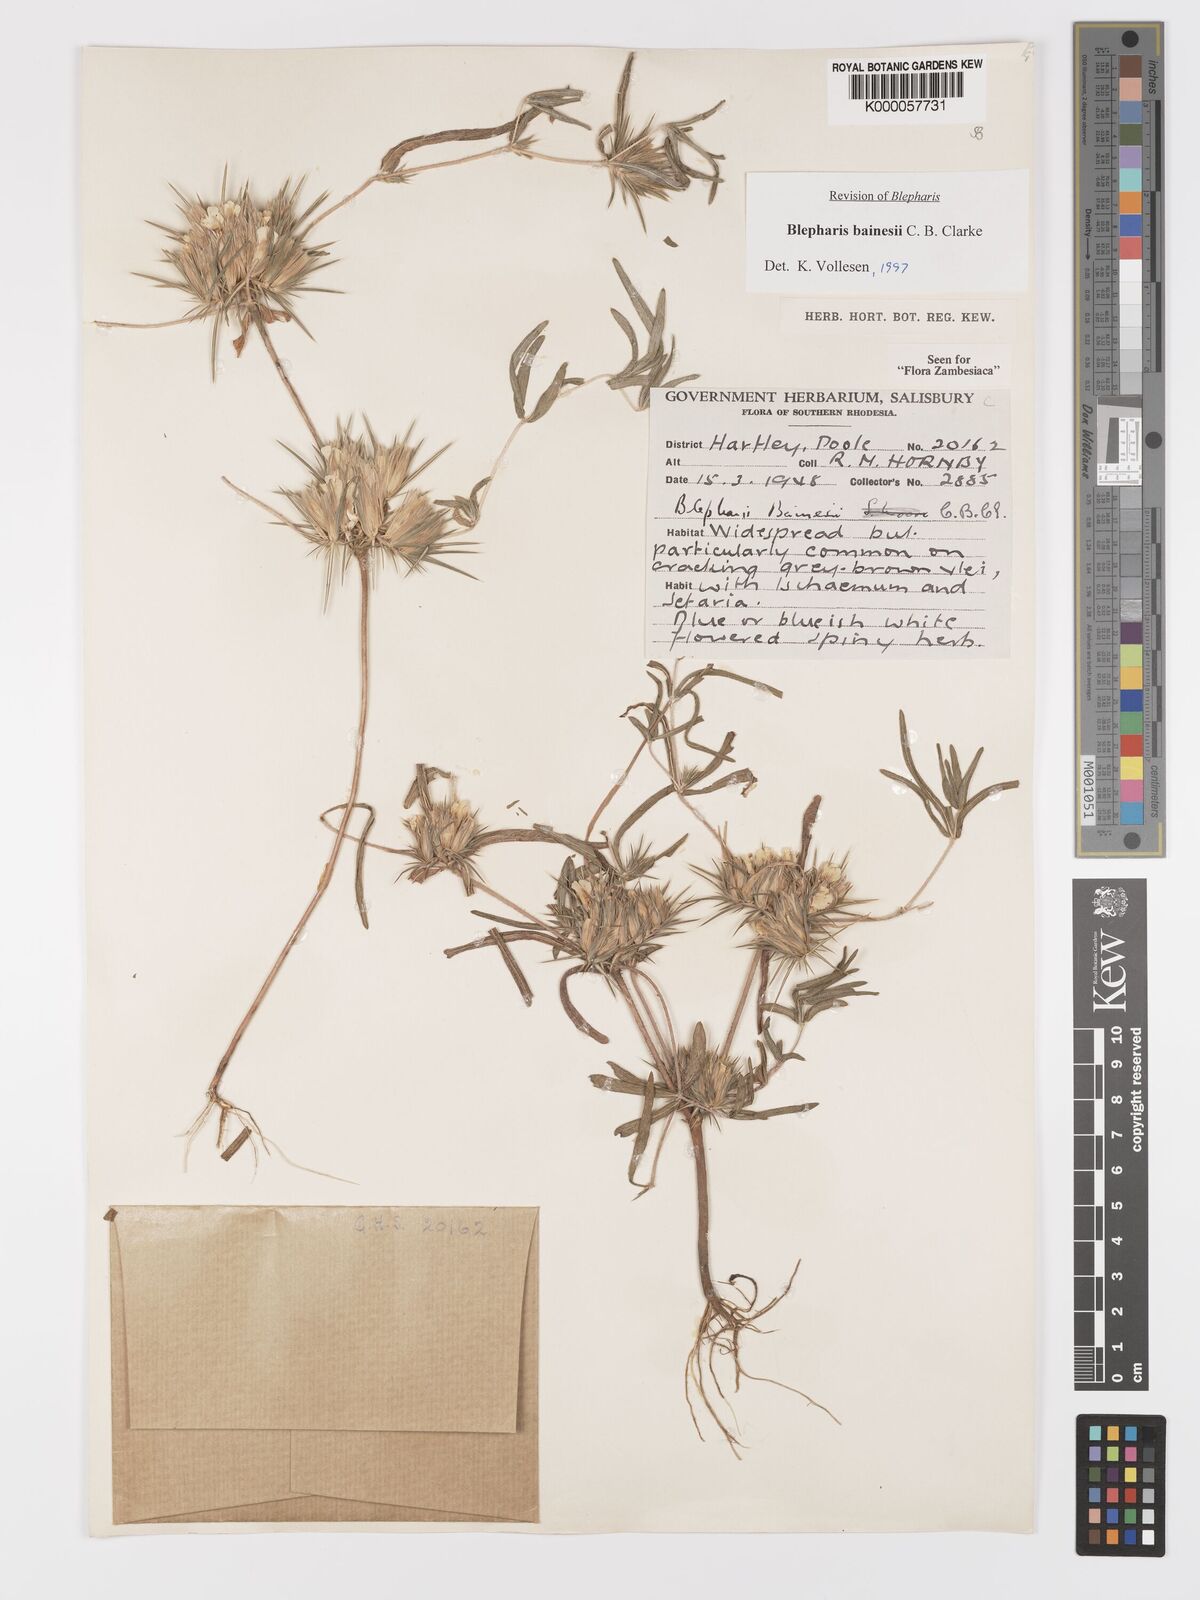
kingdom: Plantae
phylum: Tracheophyta
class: Magnoliopsida
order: Lamiales
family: Acanthaceae
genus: Blepharis
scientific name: Blepharis bainesii
